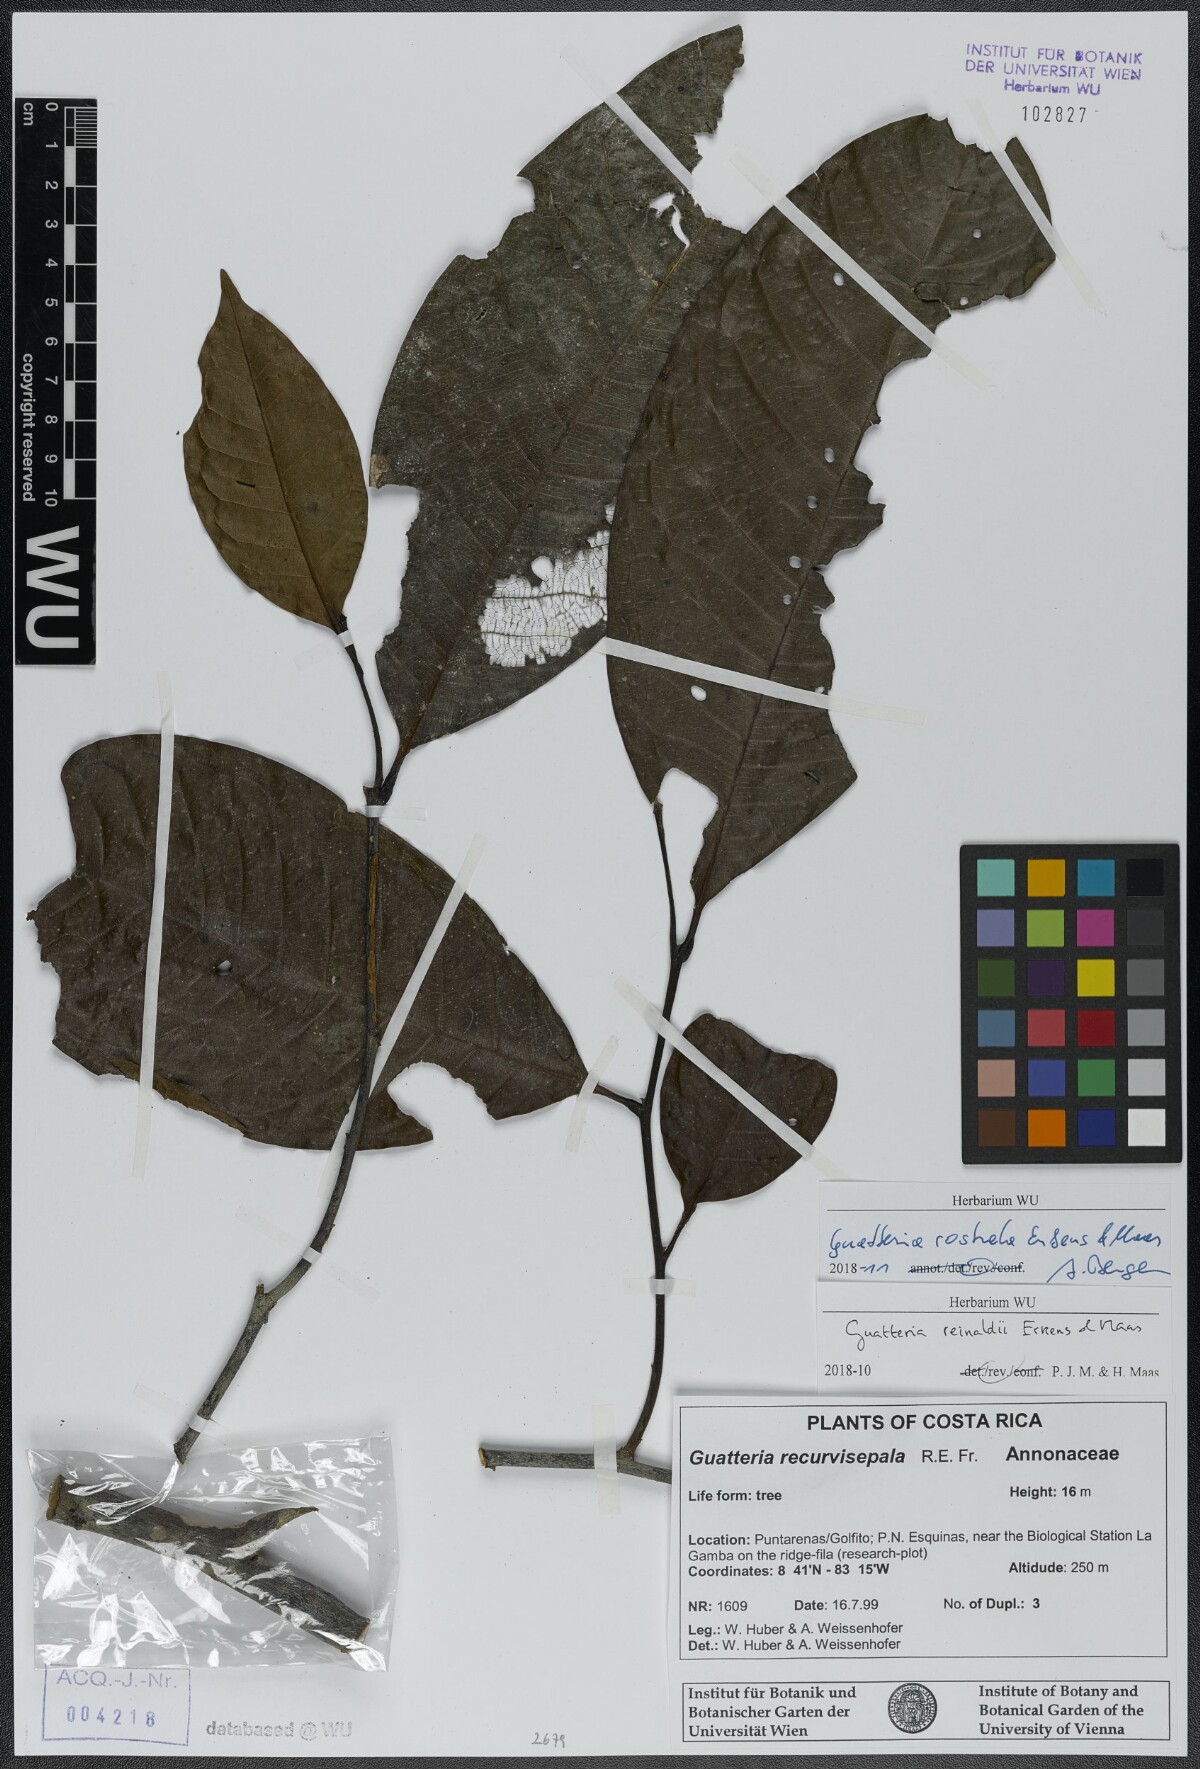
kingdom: Plantae
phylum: Tracheophyta
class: Magnoliopsida
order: Magnoliales
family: Annonaceae
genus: Guatteria
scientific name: Guatteria reinaldii
